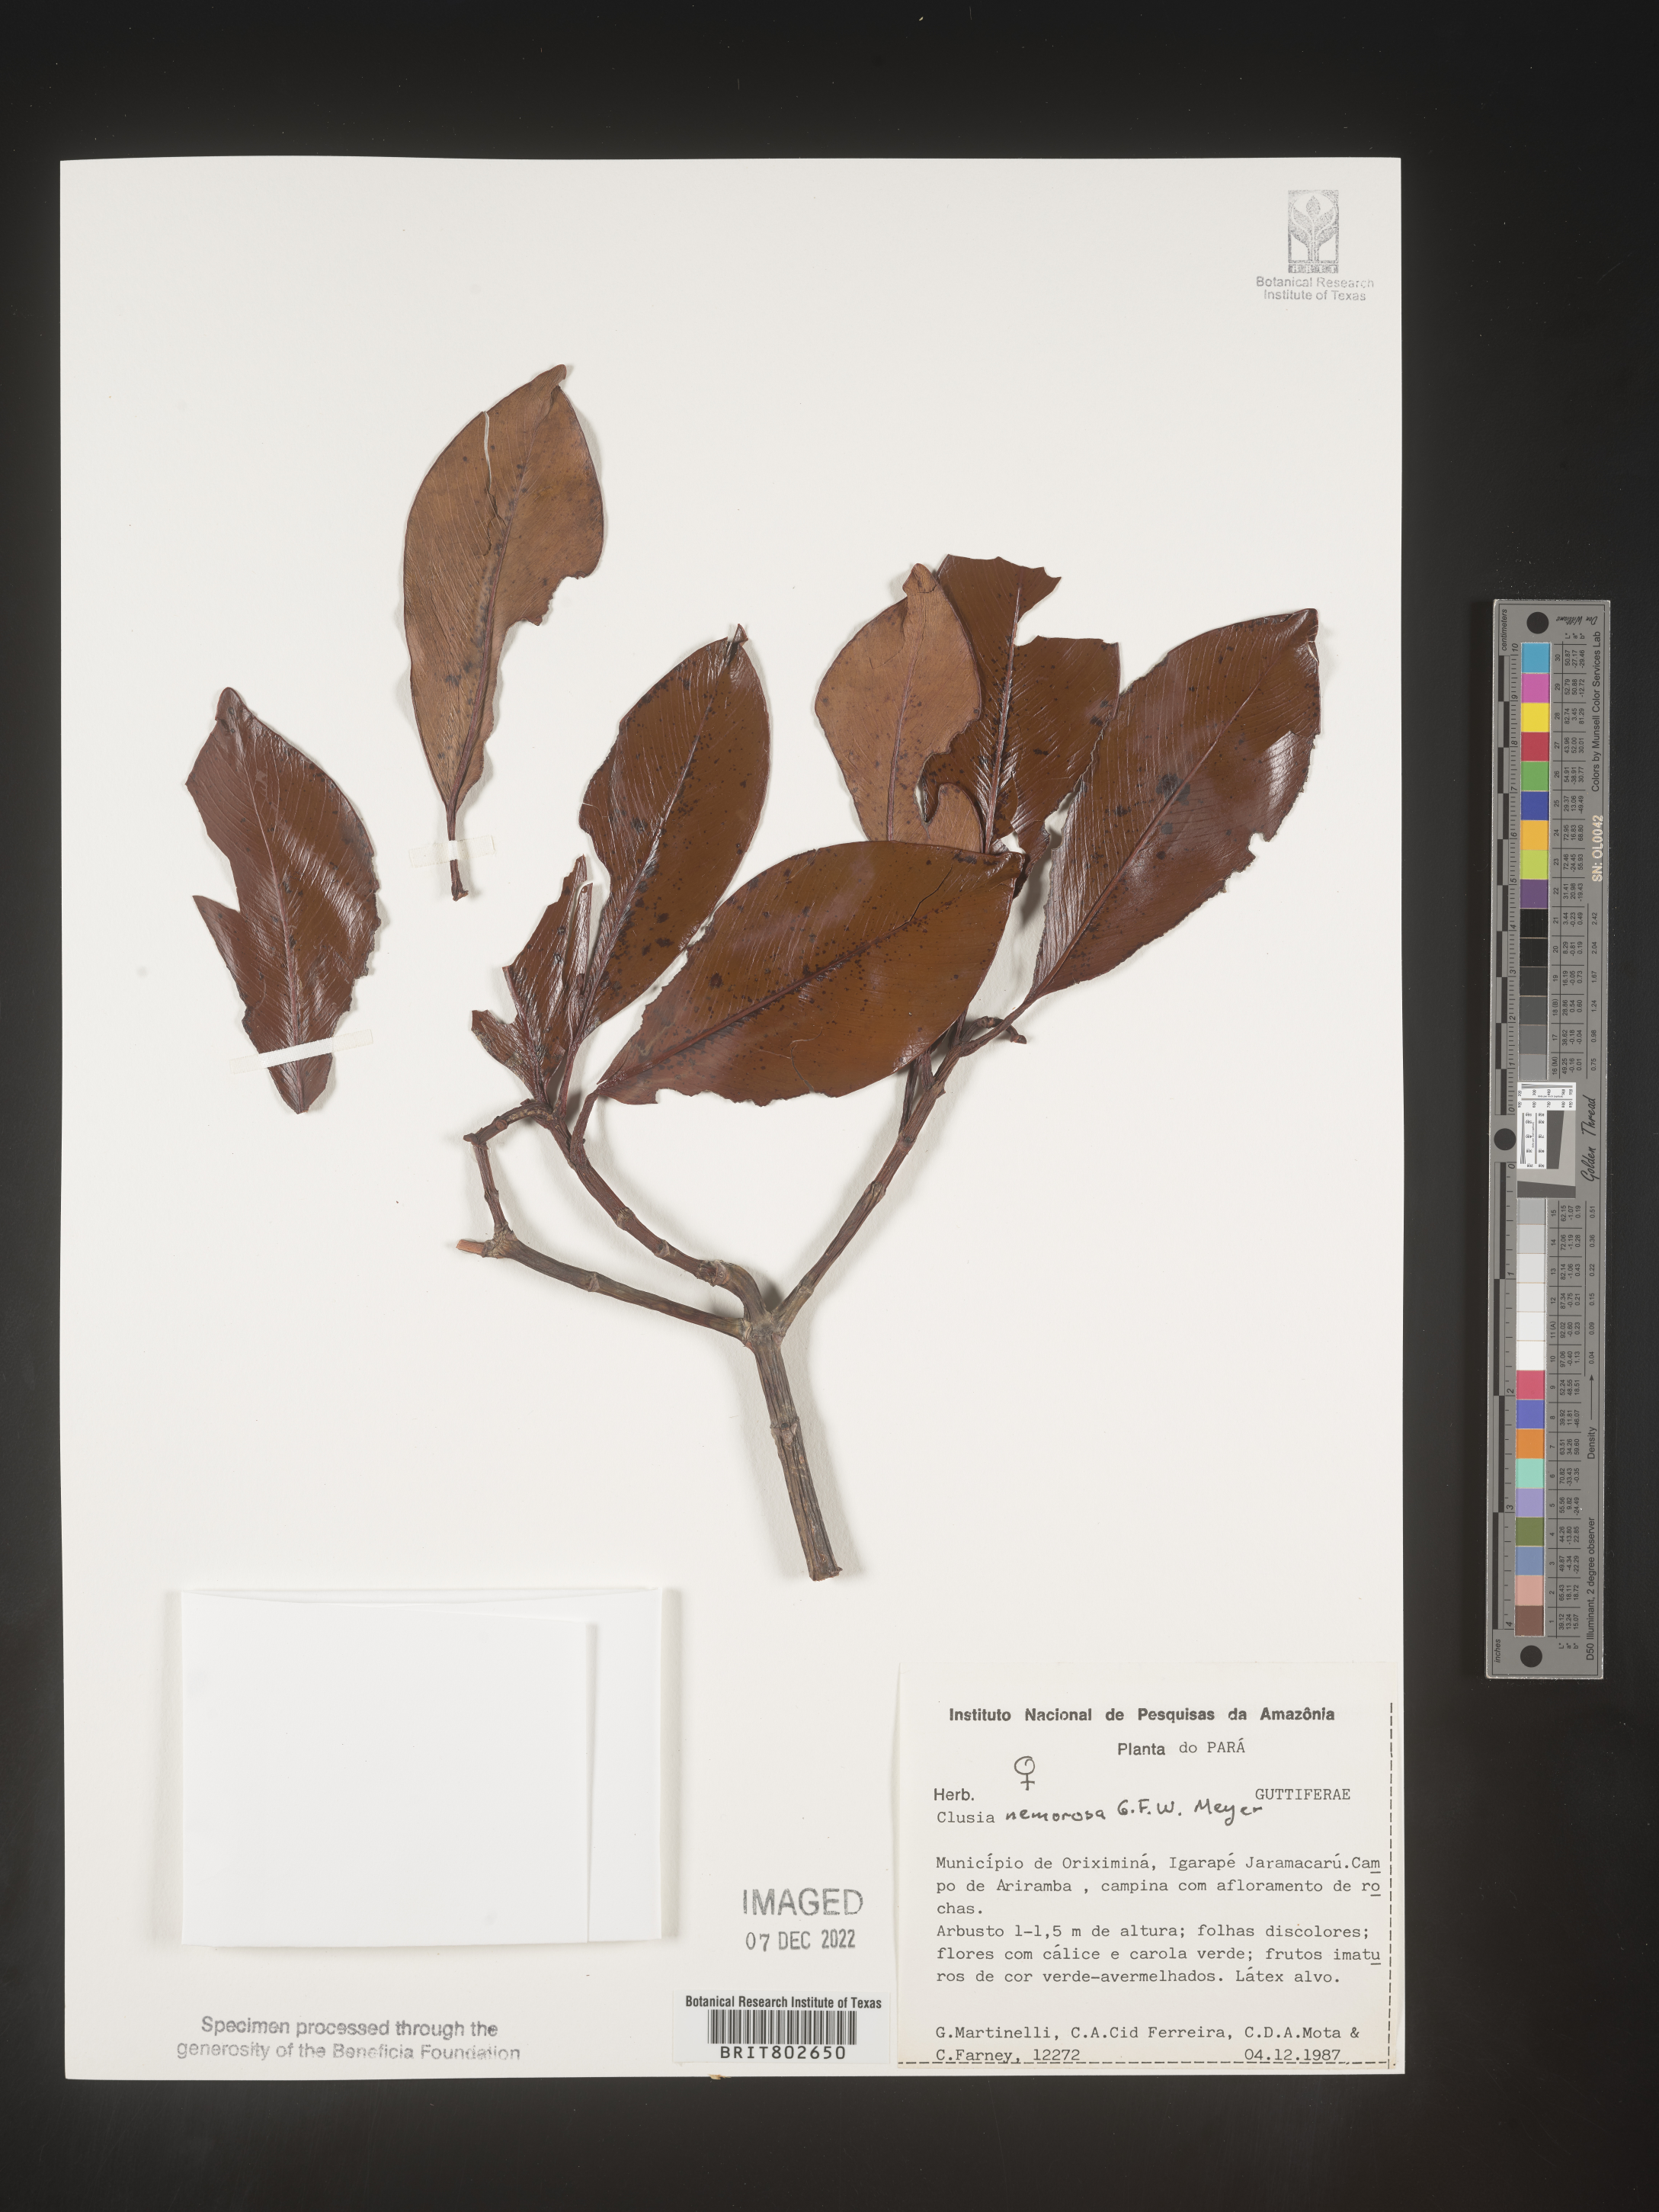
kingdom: Plantae
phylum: Tracheophyta
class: Magnoliopsida
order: Malpighiales
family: Clusiaceae
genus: Clusia
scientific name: Clusia nemorosa
